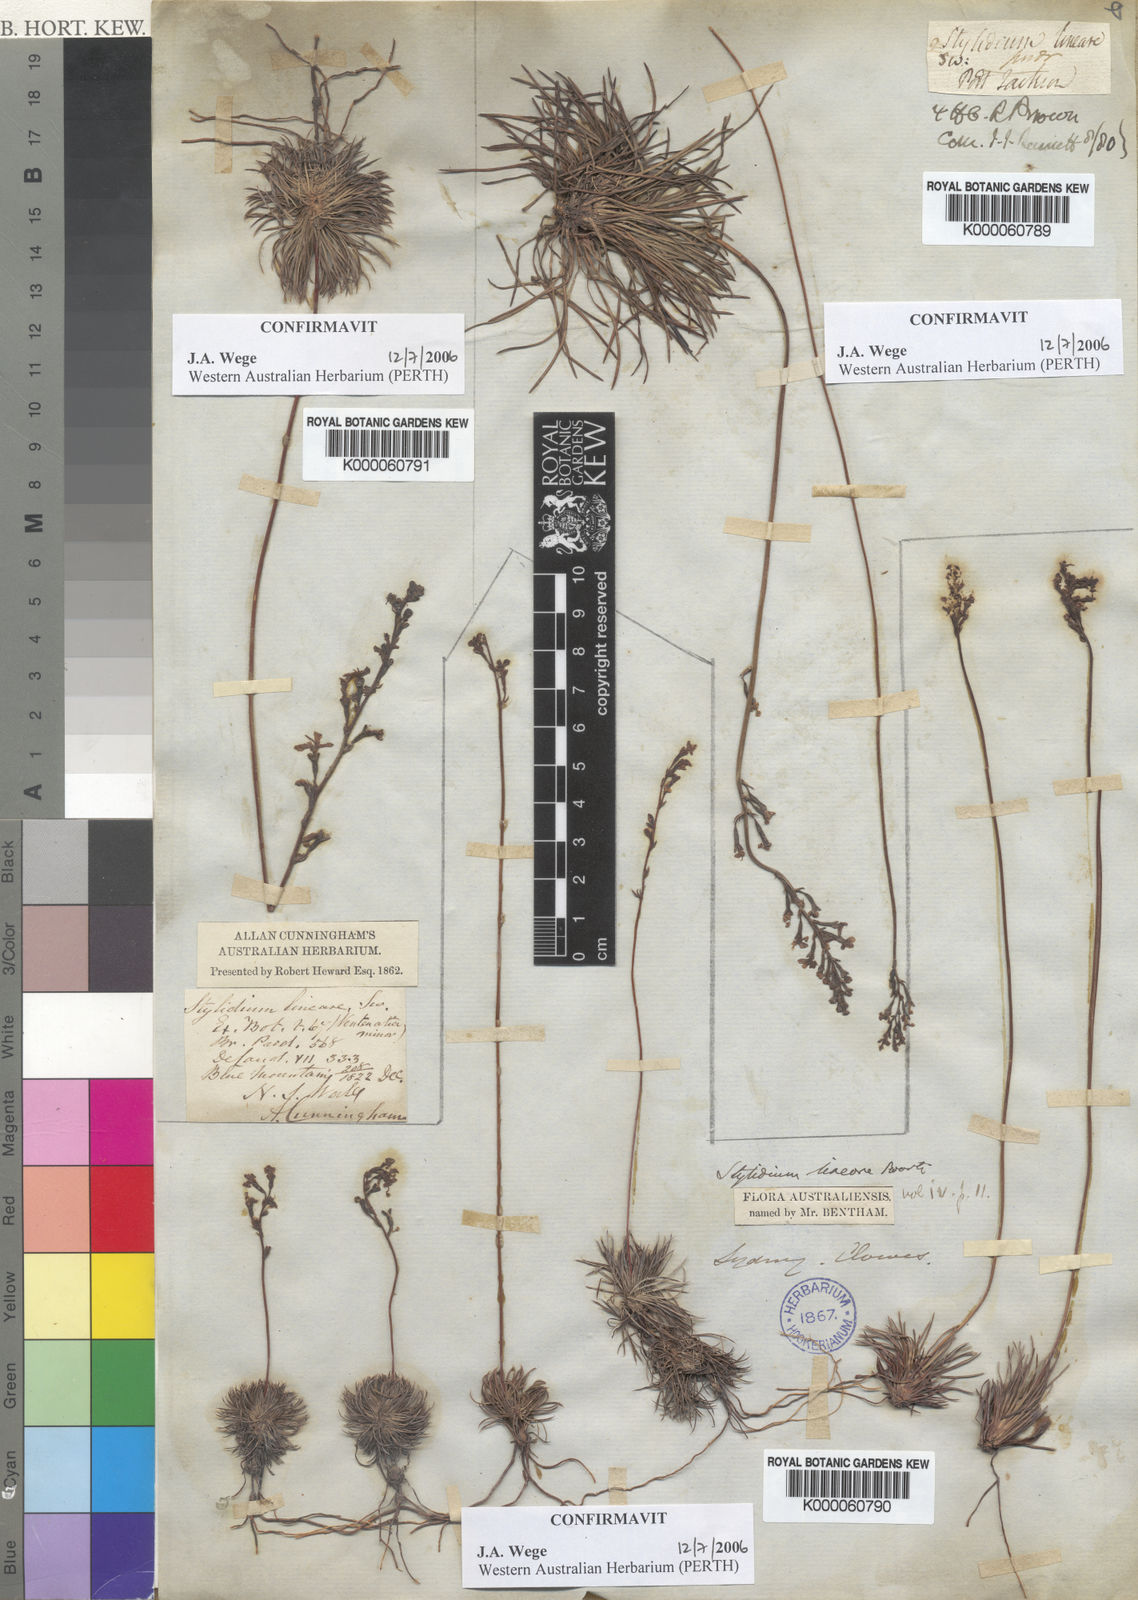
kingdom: Plantae
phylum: Tracheophyta
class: Magnoliopsida
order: Asterales
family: Stylidiaceae
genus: Stylidium
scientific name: Stylidium lineare
